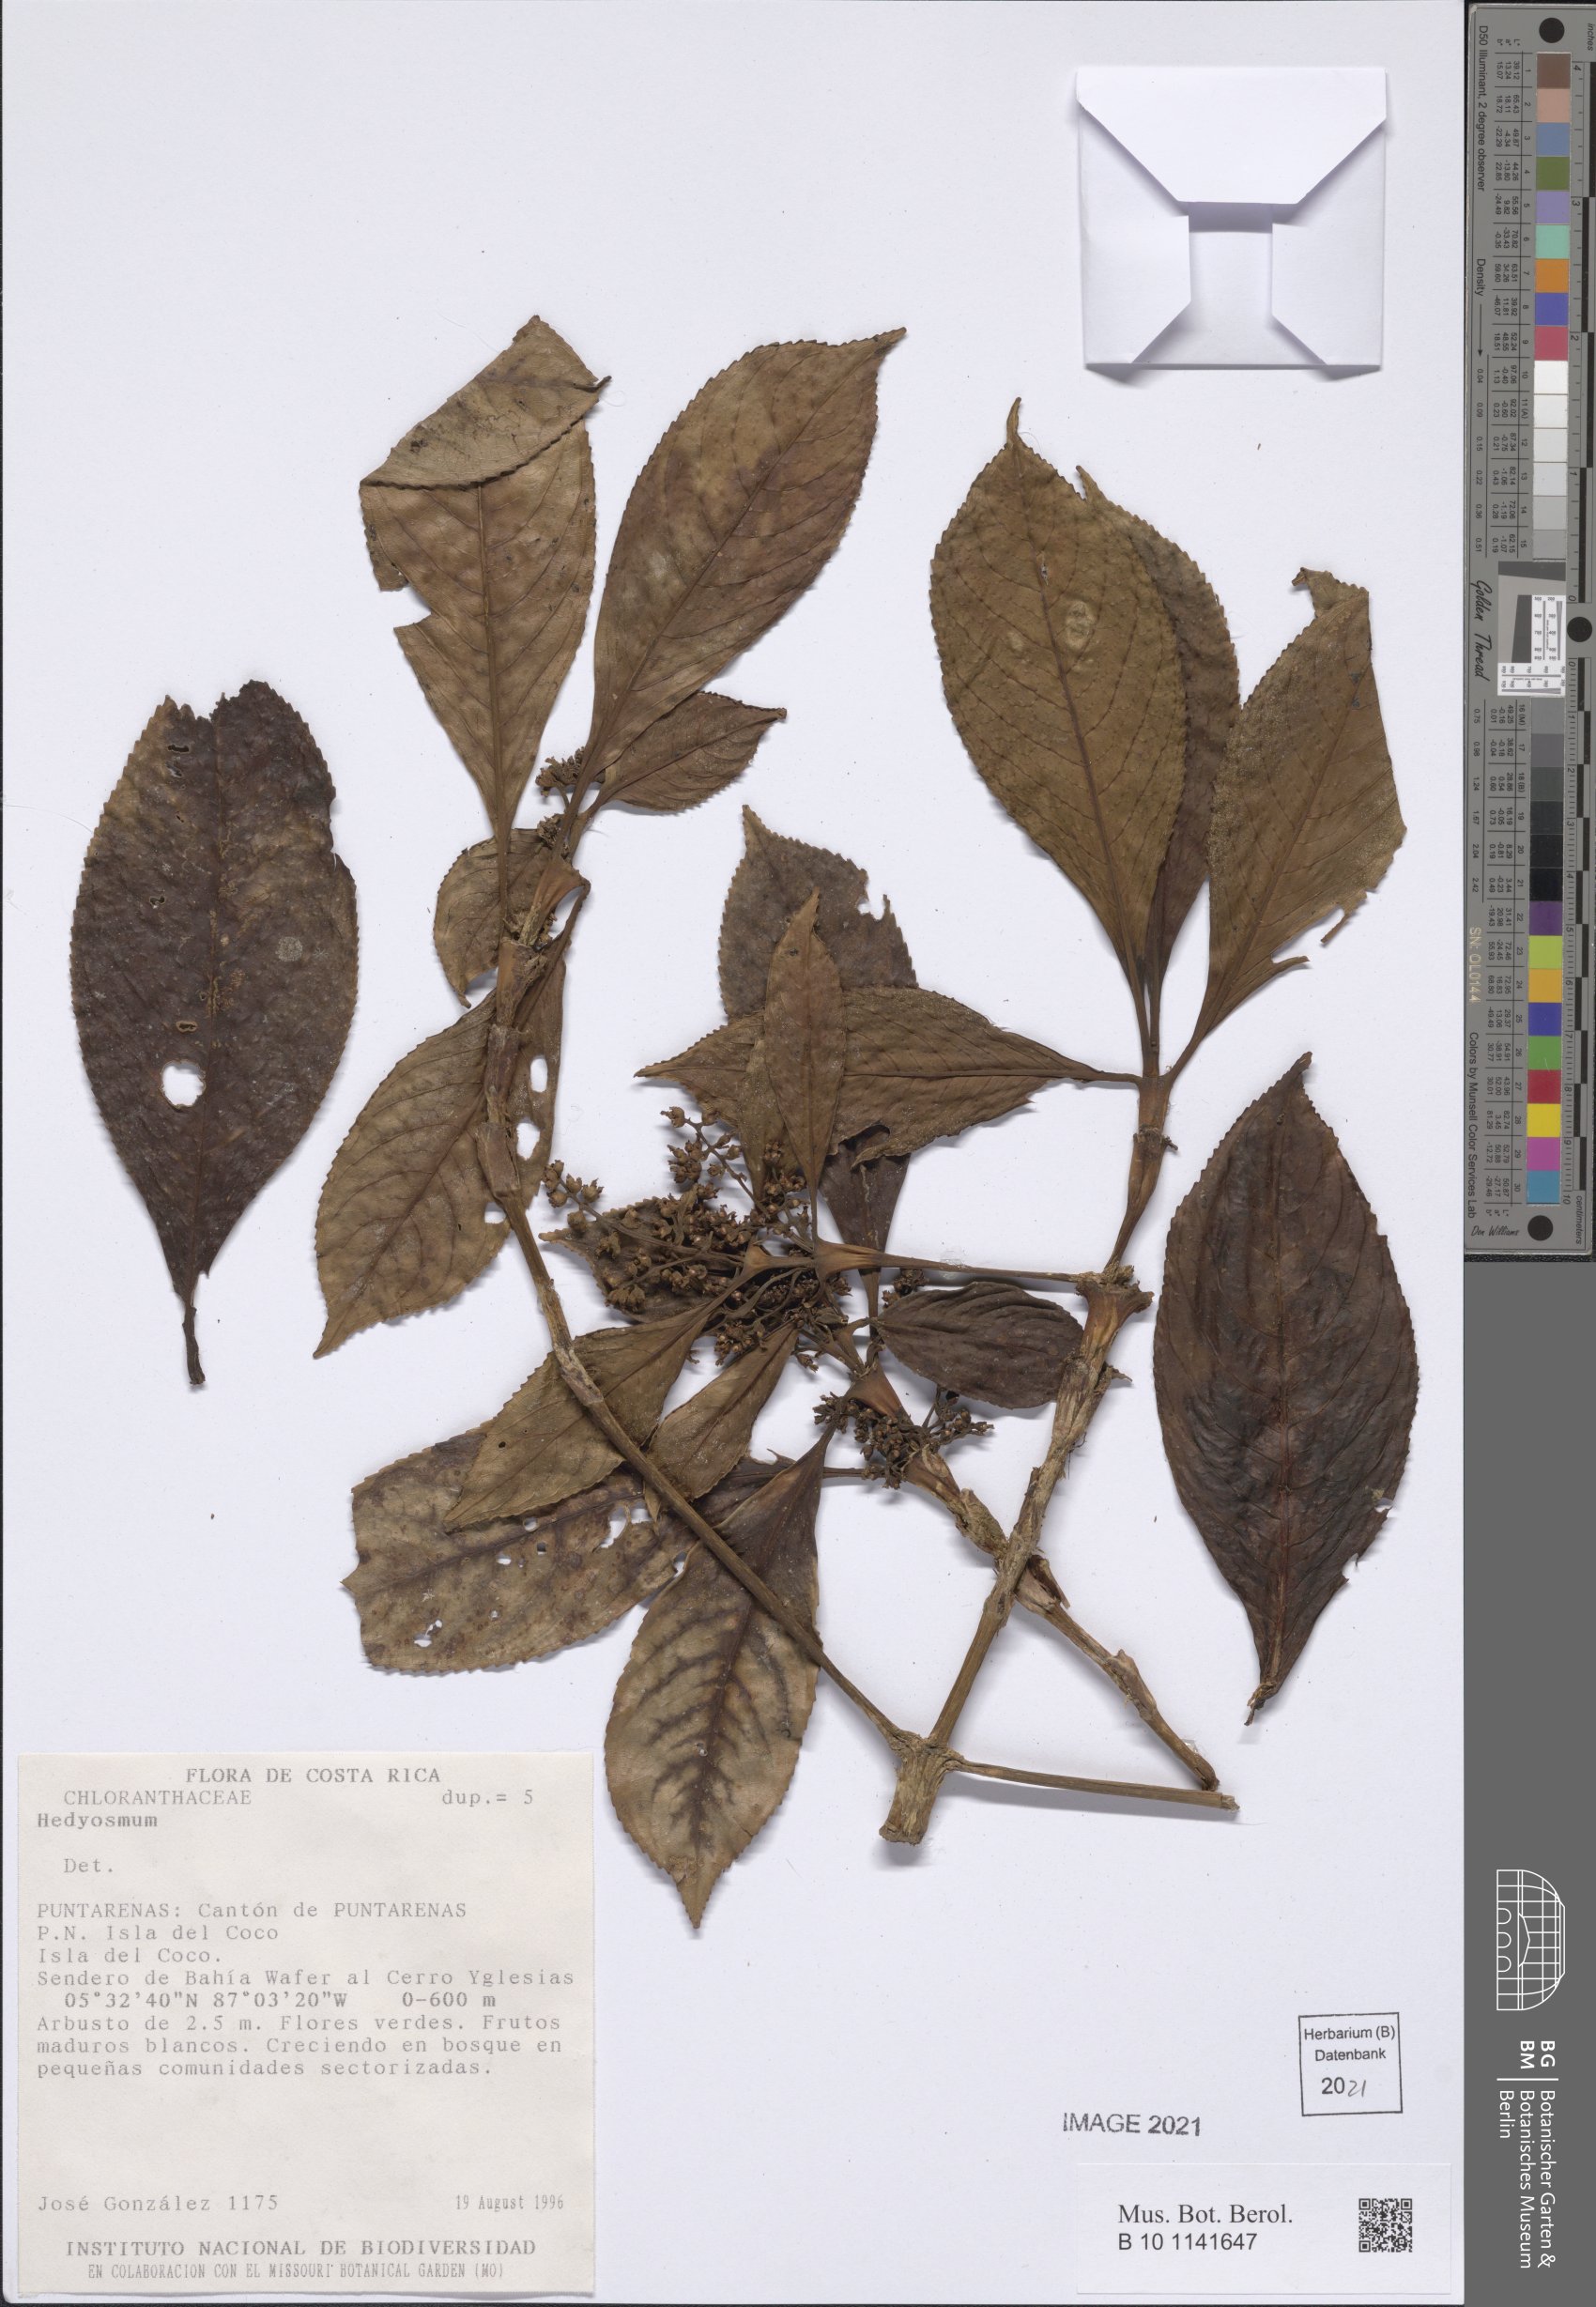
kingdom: Plantae
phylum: Tracheophyta
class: Magnoliopsida
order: Chloranthales
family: Chloranthaceae
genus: Hedyosmum
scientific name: Hedyosmum
